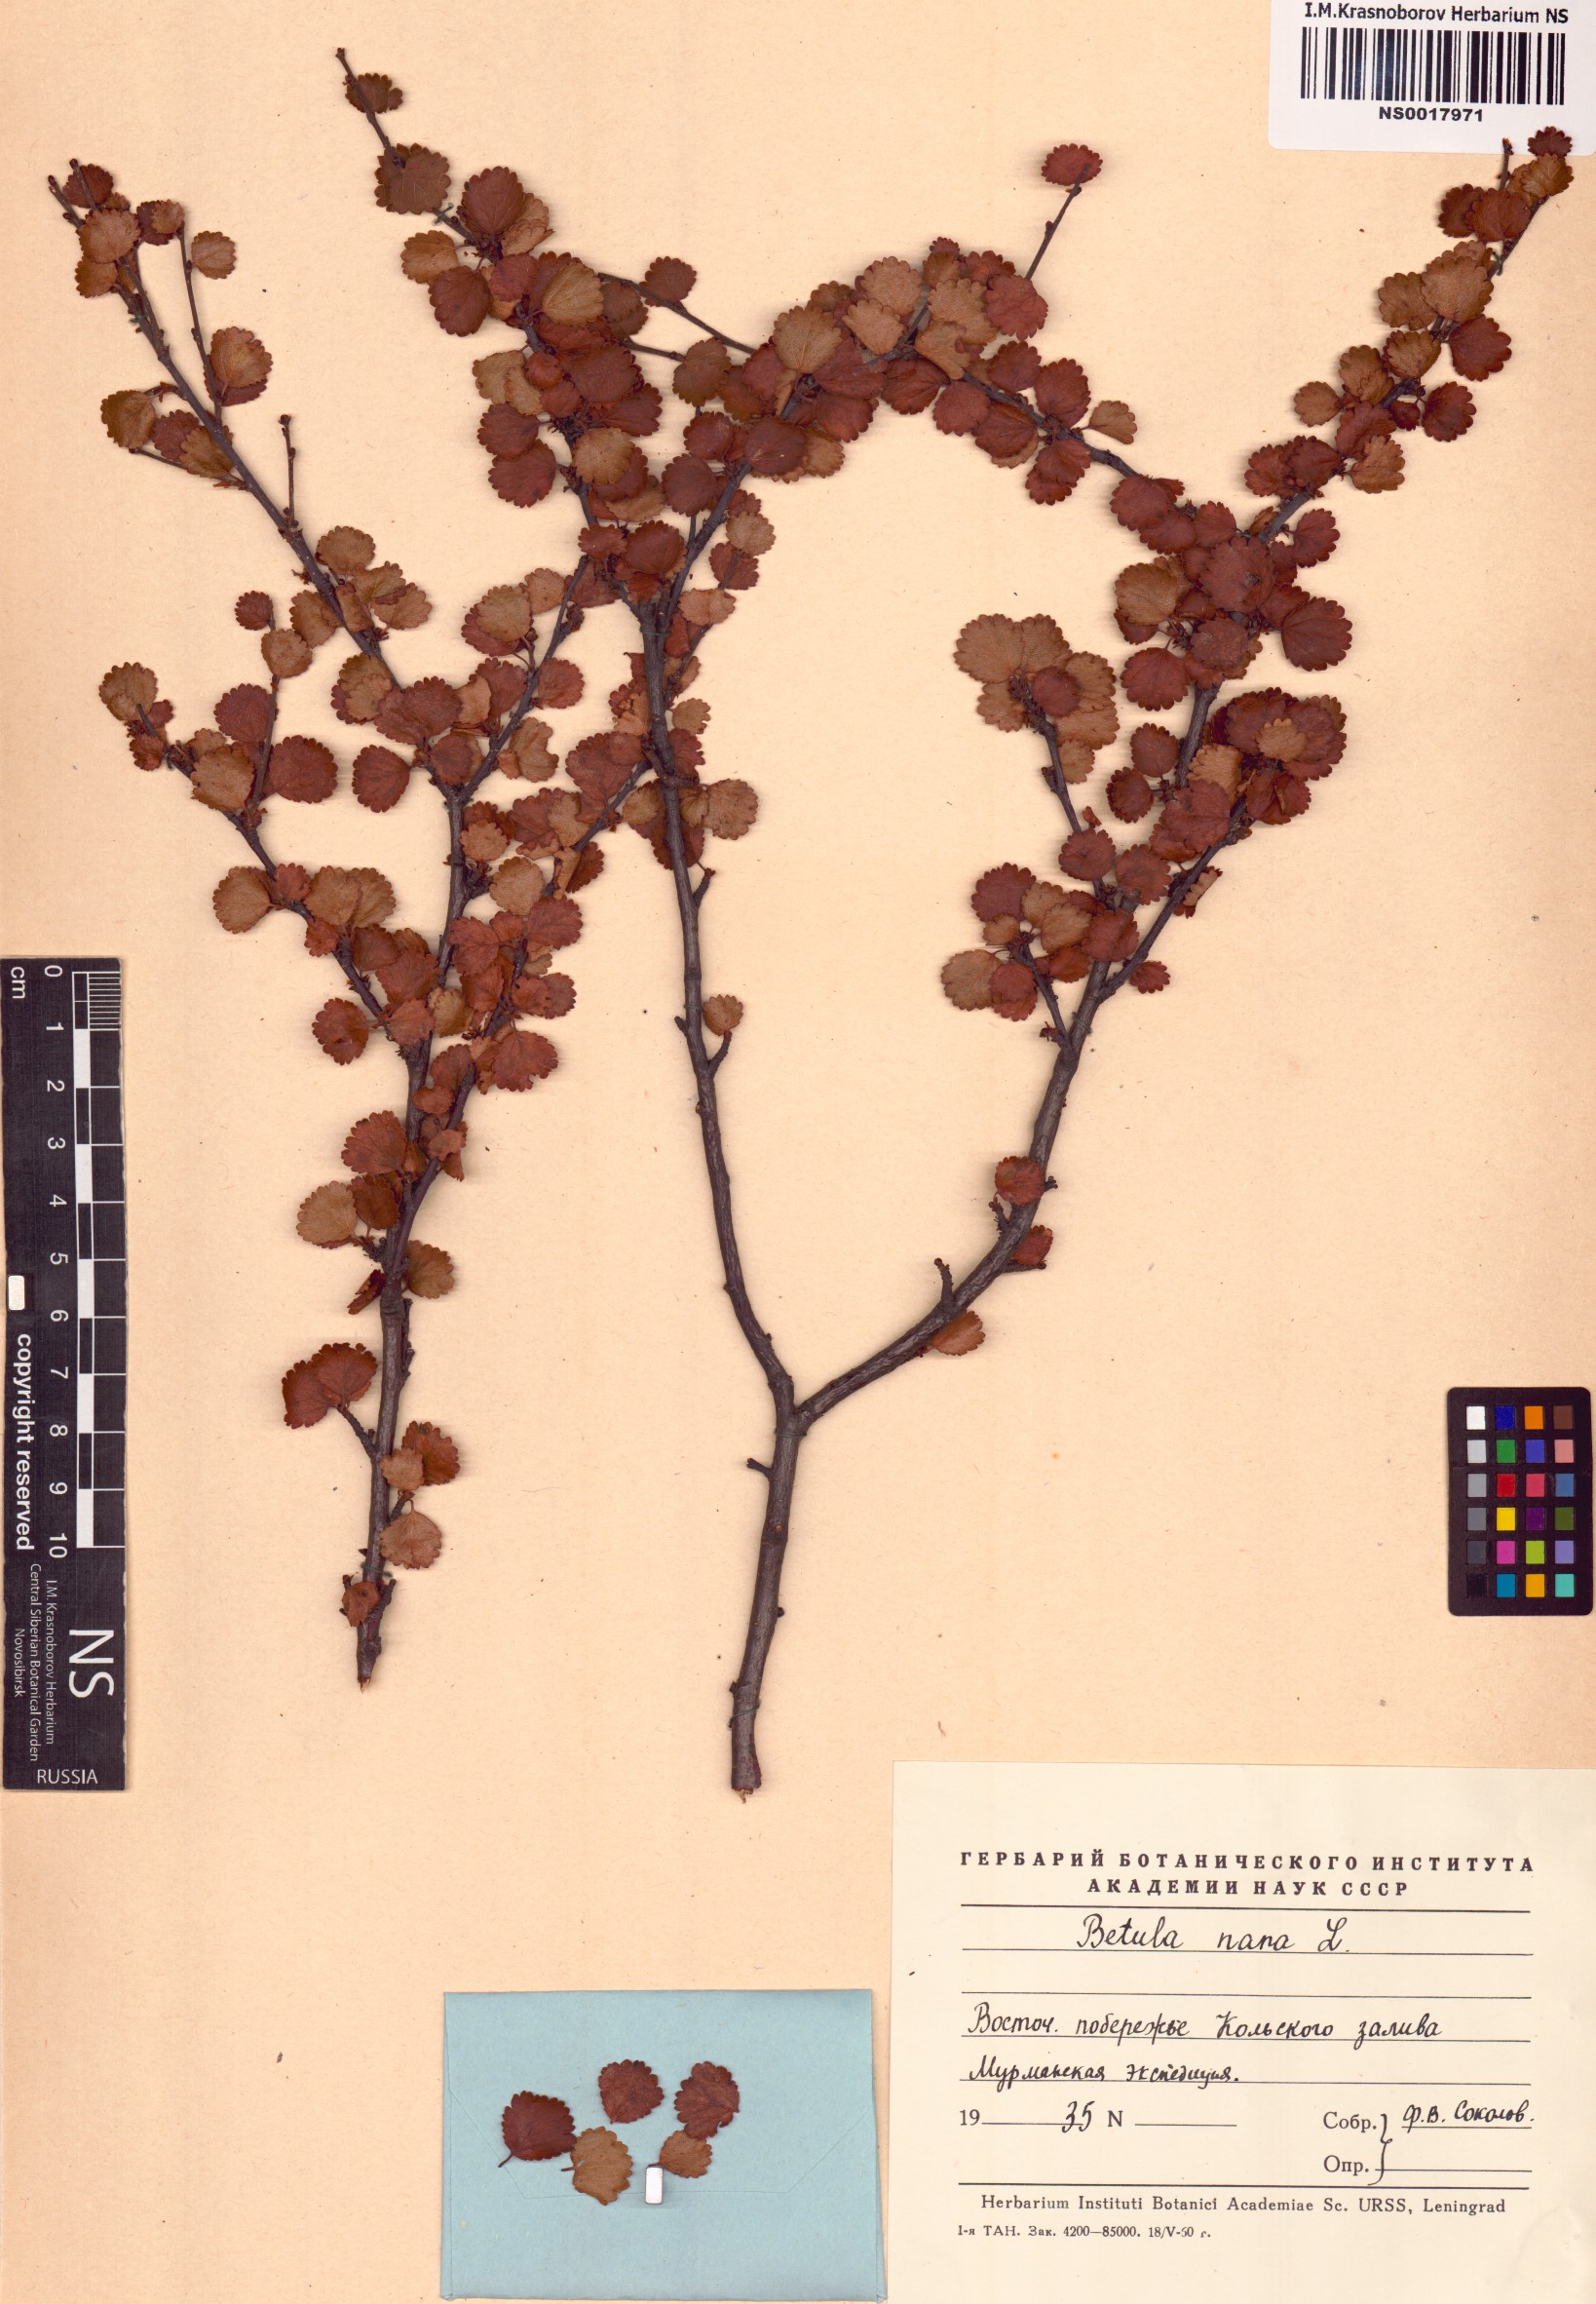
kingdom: Plantae
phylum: Tracheophyta
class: Magnoliopsida
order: Fagales
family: Betulaceae
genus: Betula
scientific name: Betula nana
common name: Arctic dwarf birch
